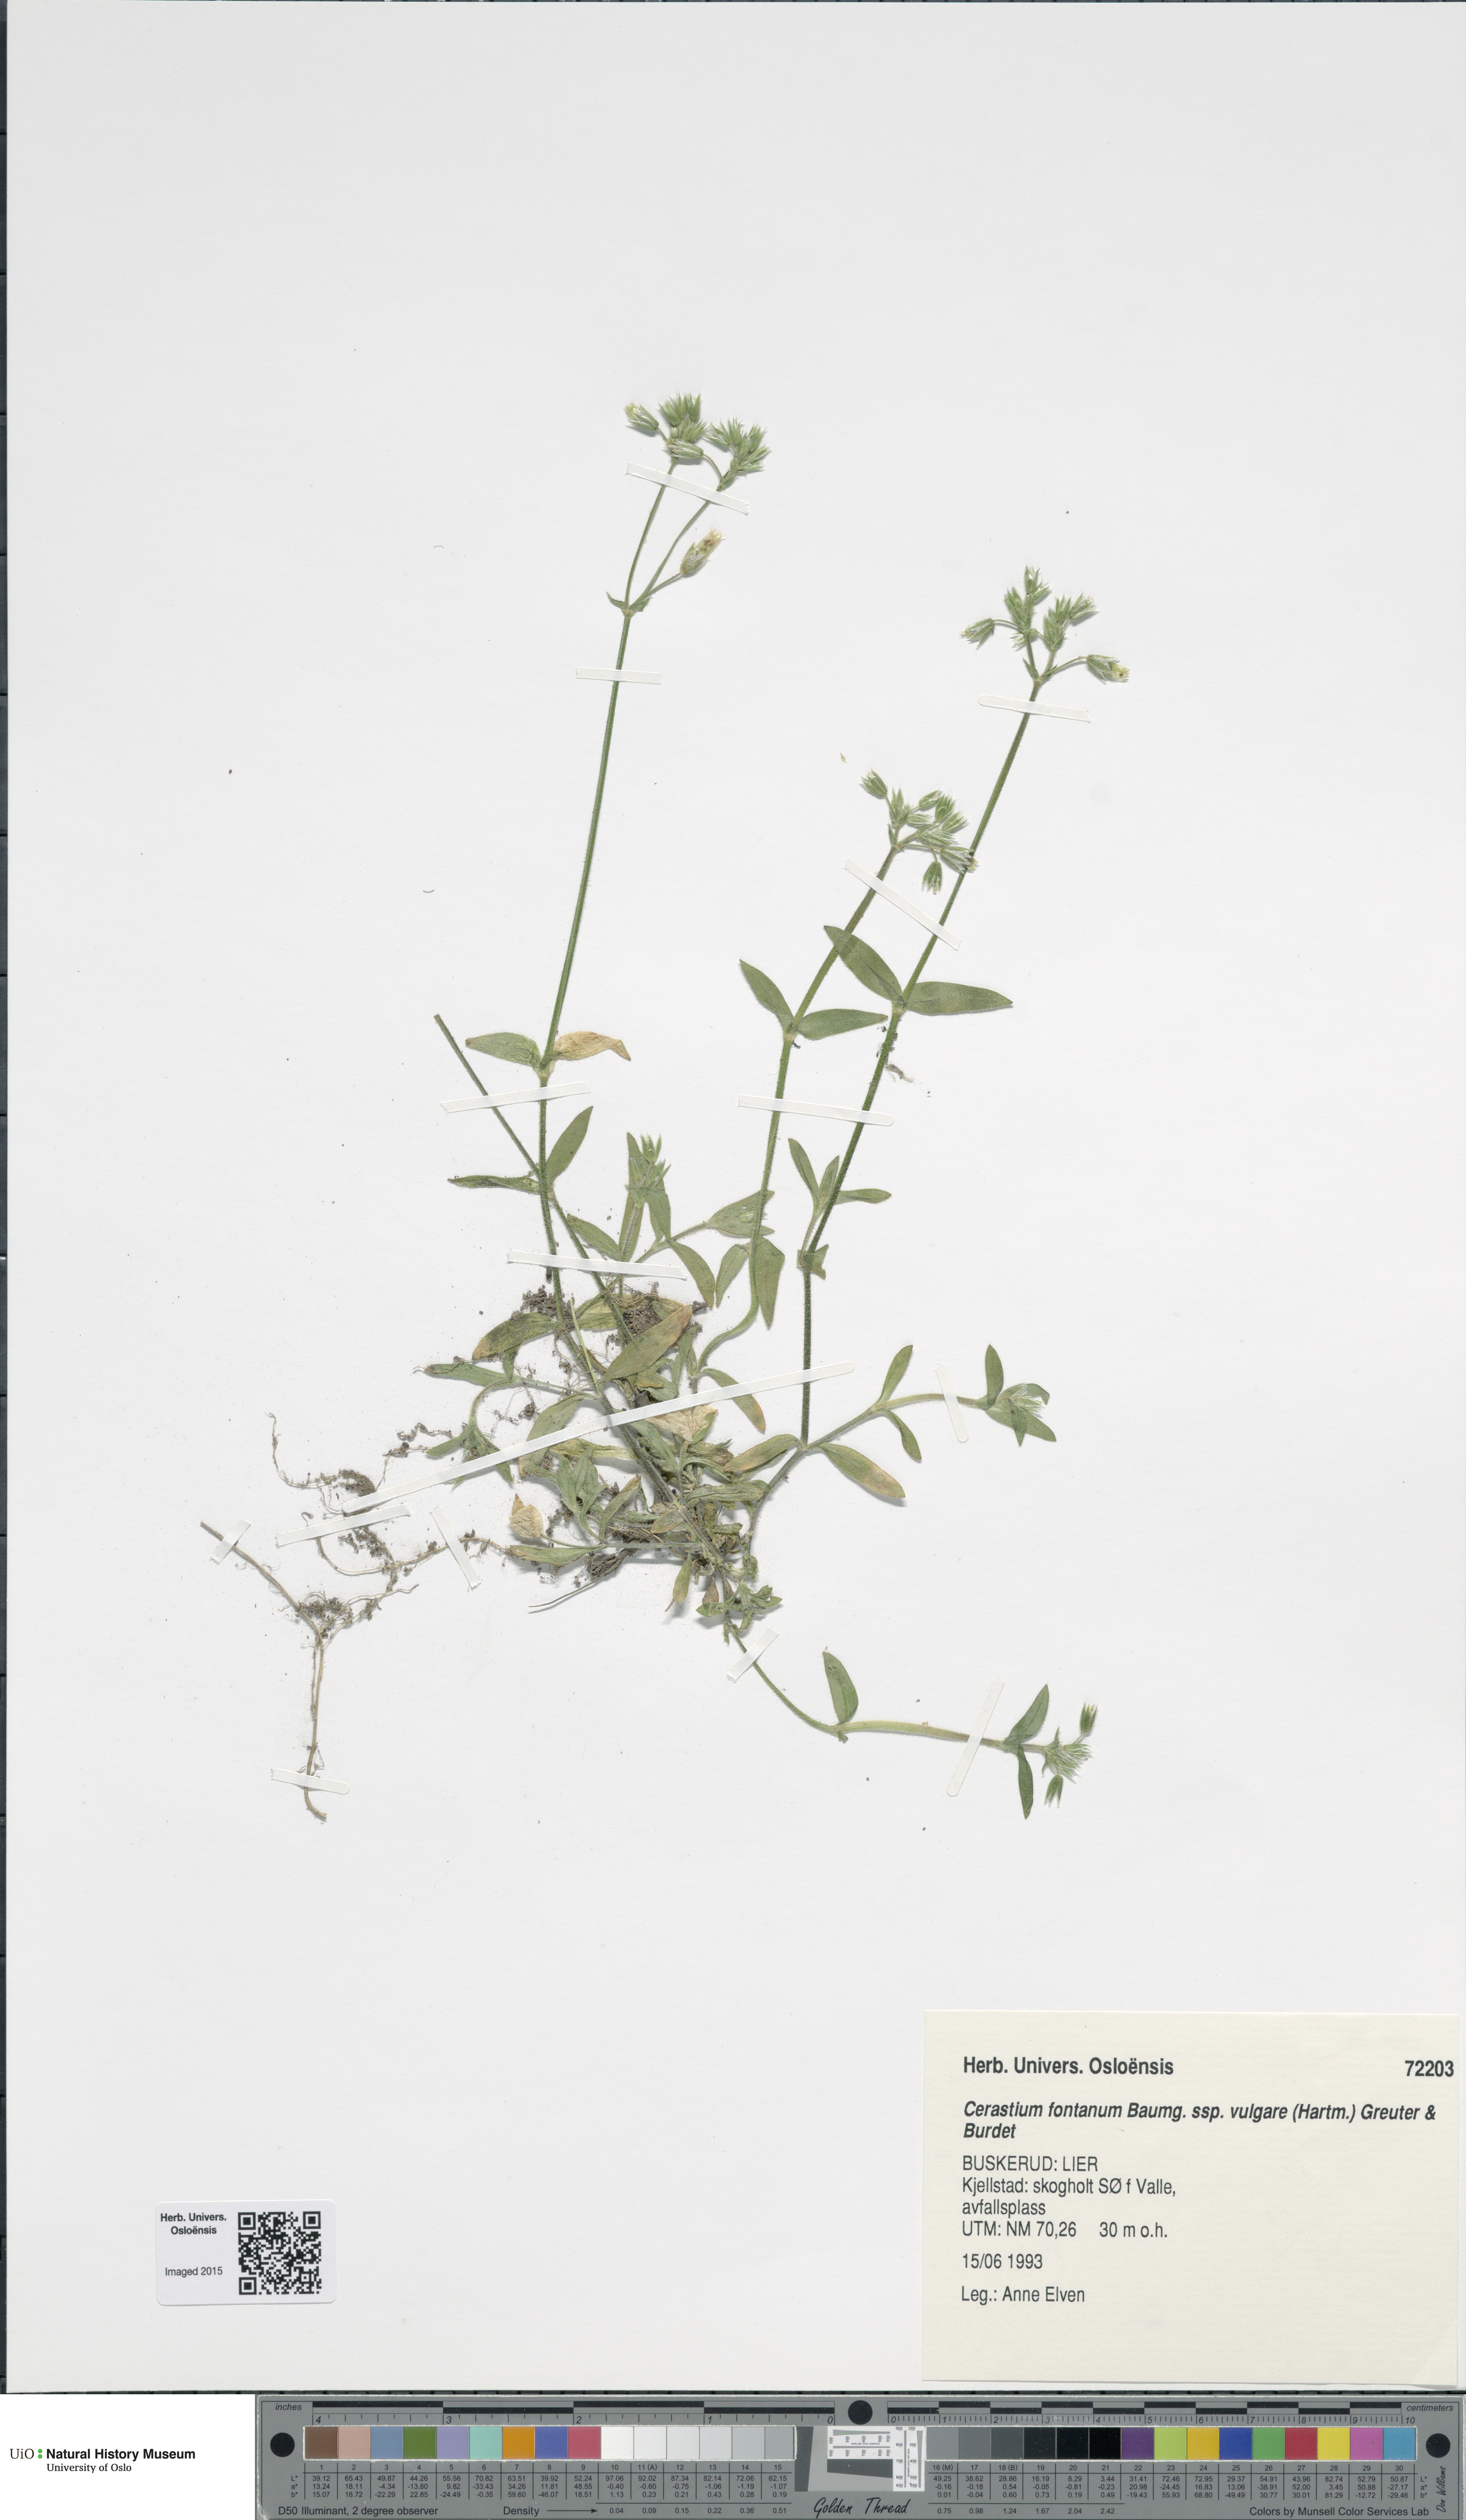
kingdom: Plantae
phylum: Tracheophyta
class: Magnoliopsida
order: Caryophyllales
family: Caryophyllaceae
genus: Cerastium
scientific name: Cerastium holosteoides
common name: Big chickweed
